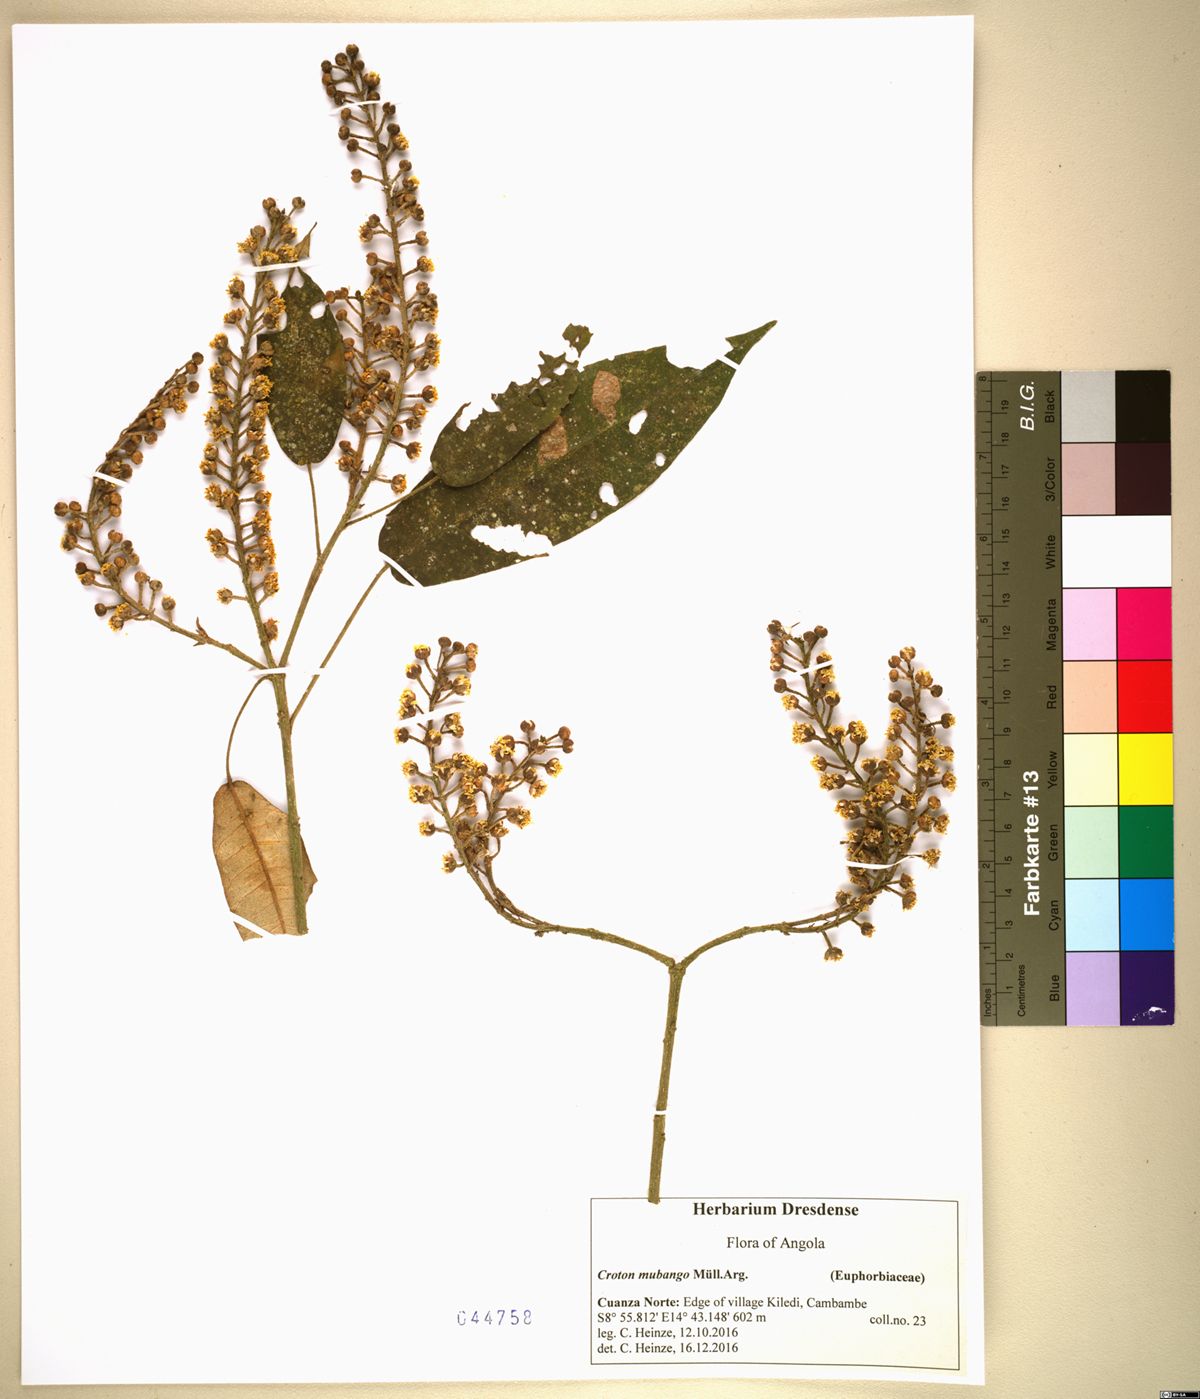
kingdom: Plantae
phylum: Tracheophyta
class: Magnoliopsida
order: Malpighiales
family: Euphorbiaceae
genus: Croton
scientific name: Croton mubango
